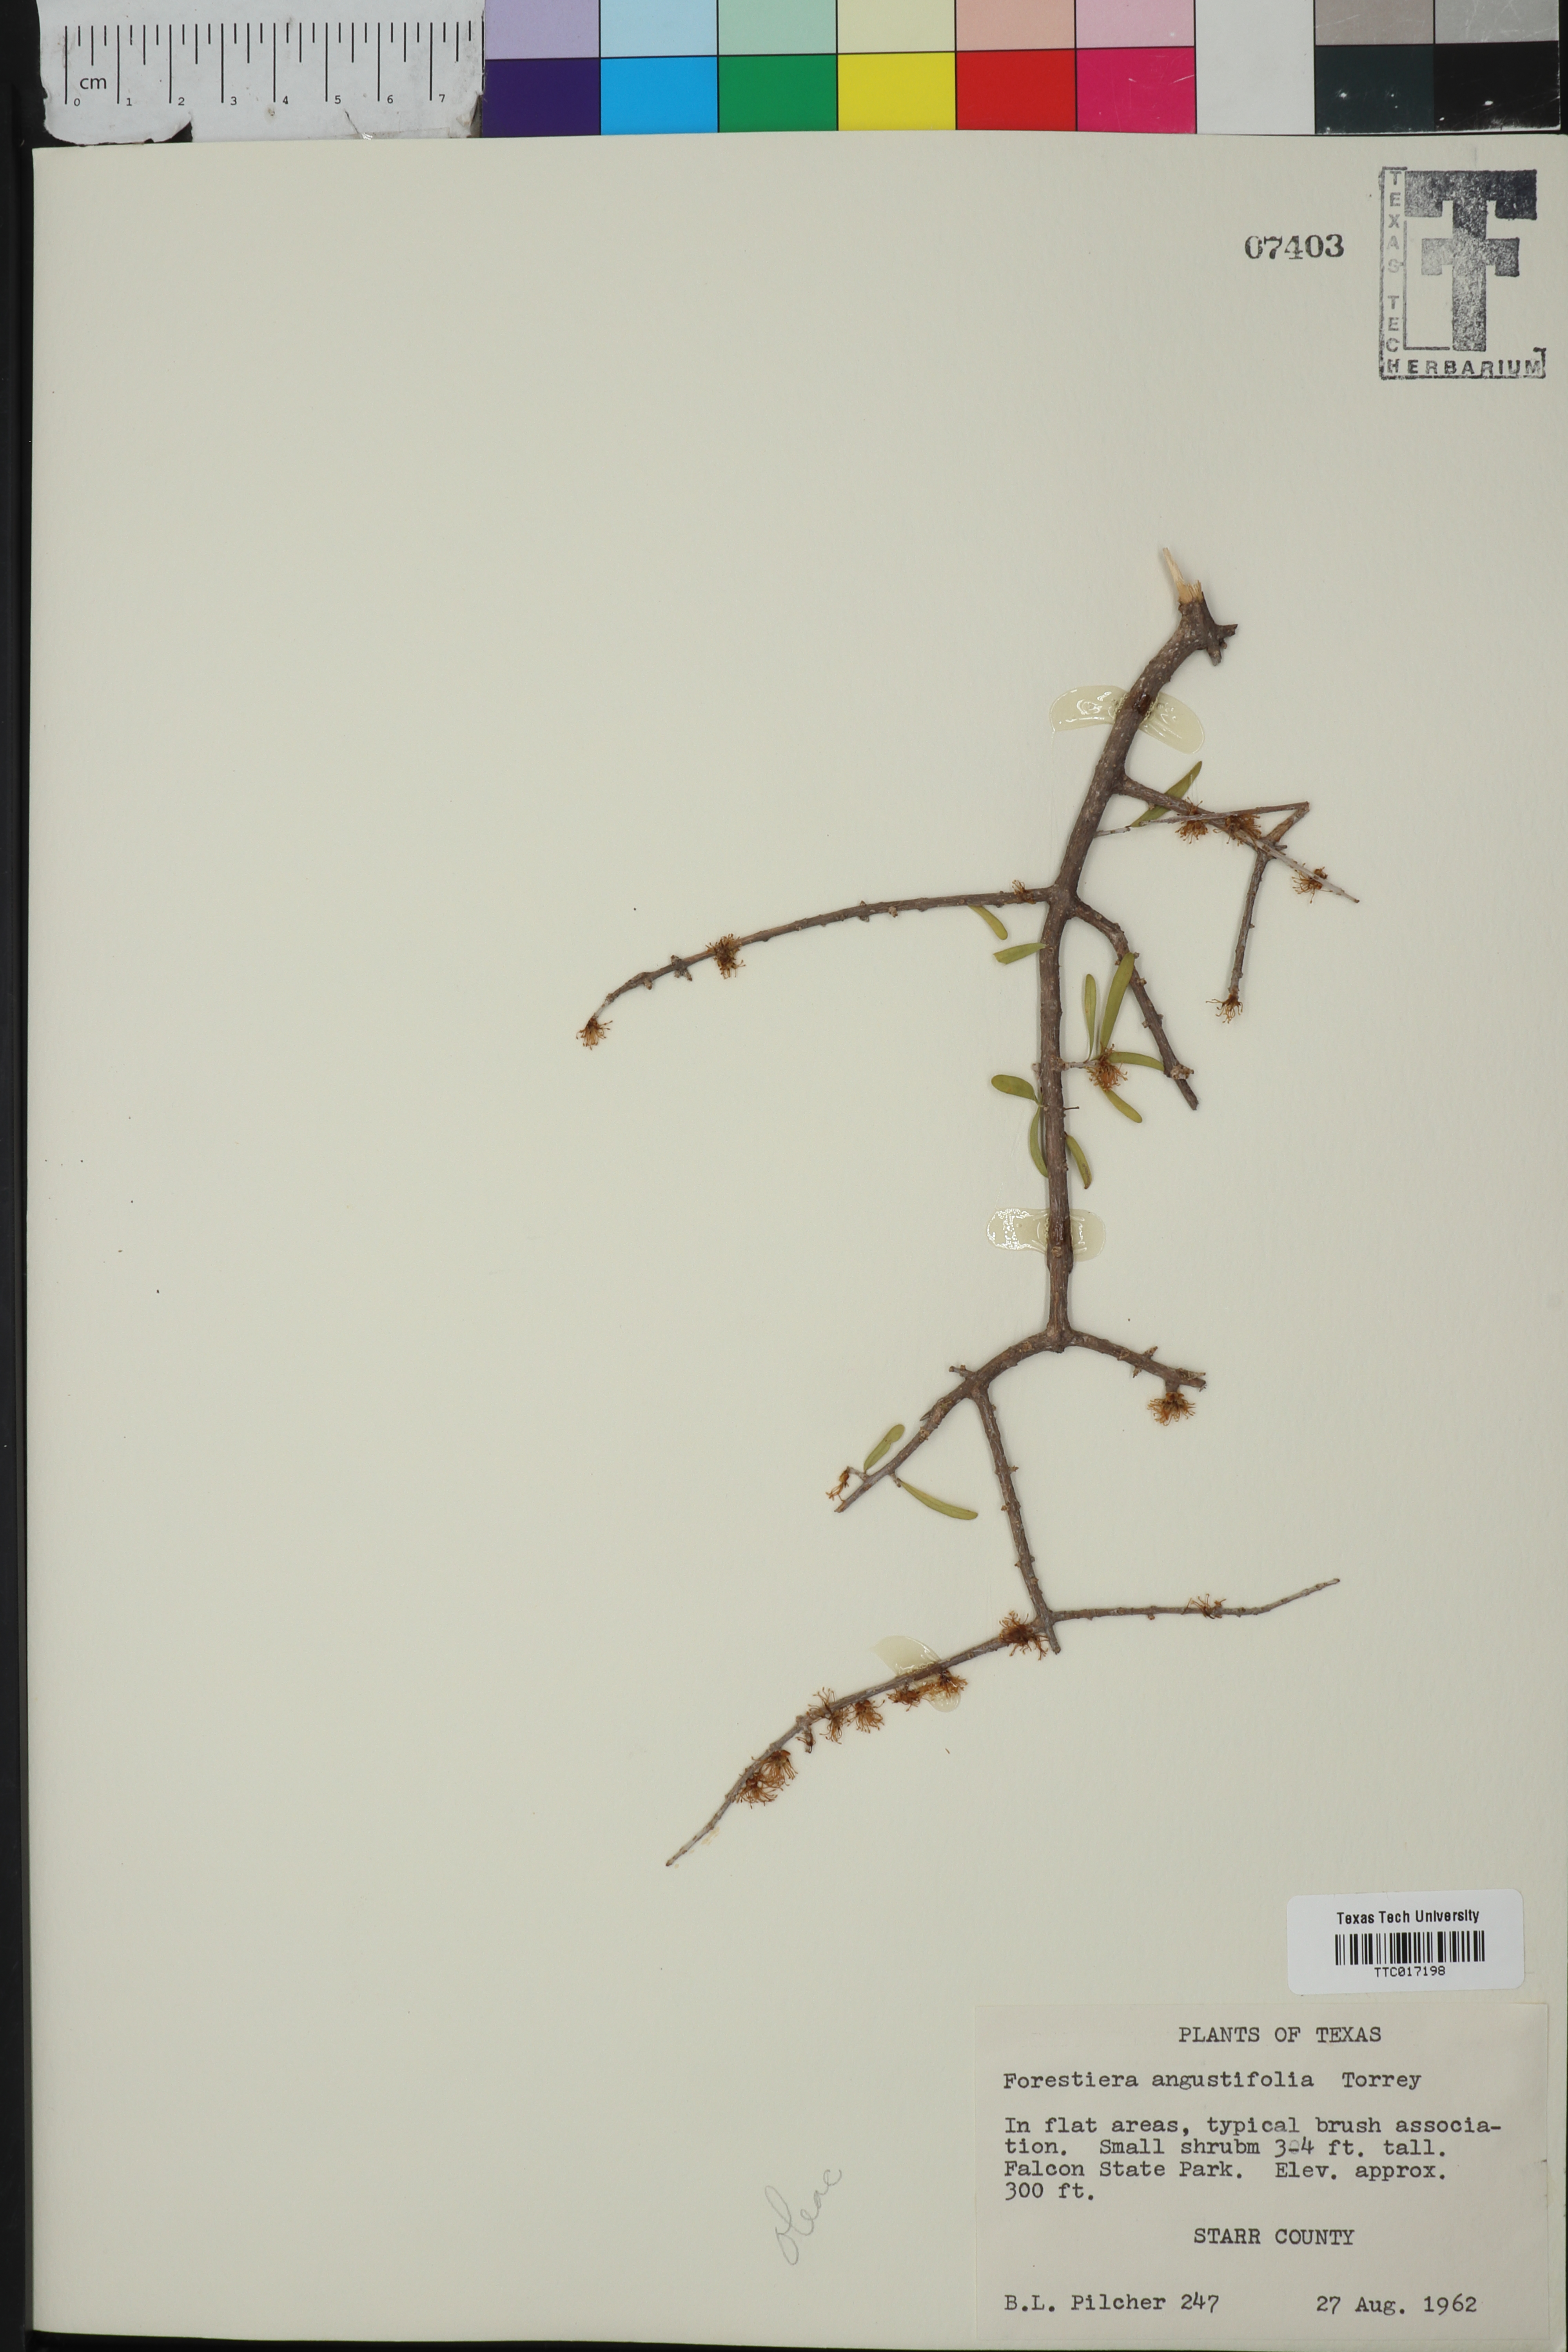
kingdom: Plantae
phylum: Tracheophyta
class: Magnoliopsida
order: Lamiales
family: Oleaceae
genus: Forestiera
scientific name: Forestiera angustifolia
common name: Elbowbush
